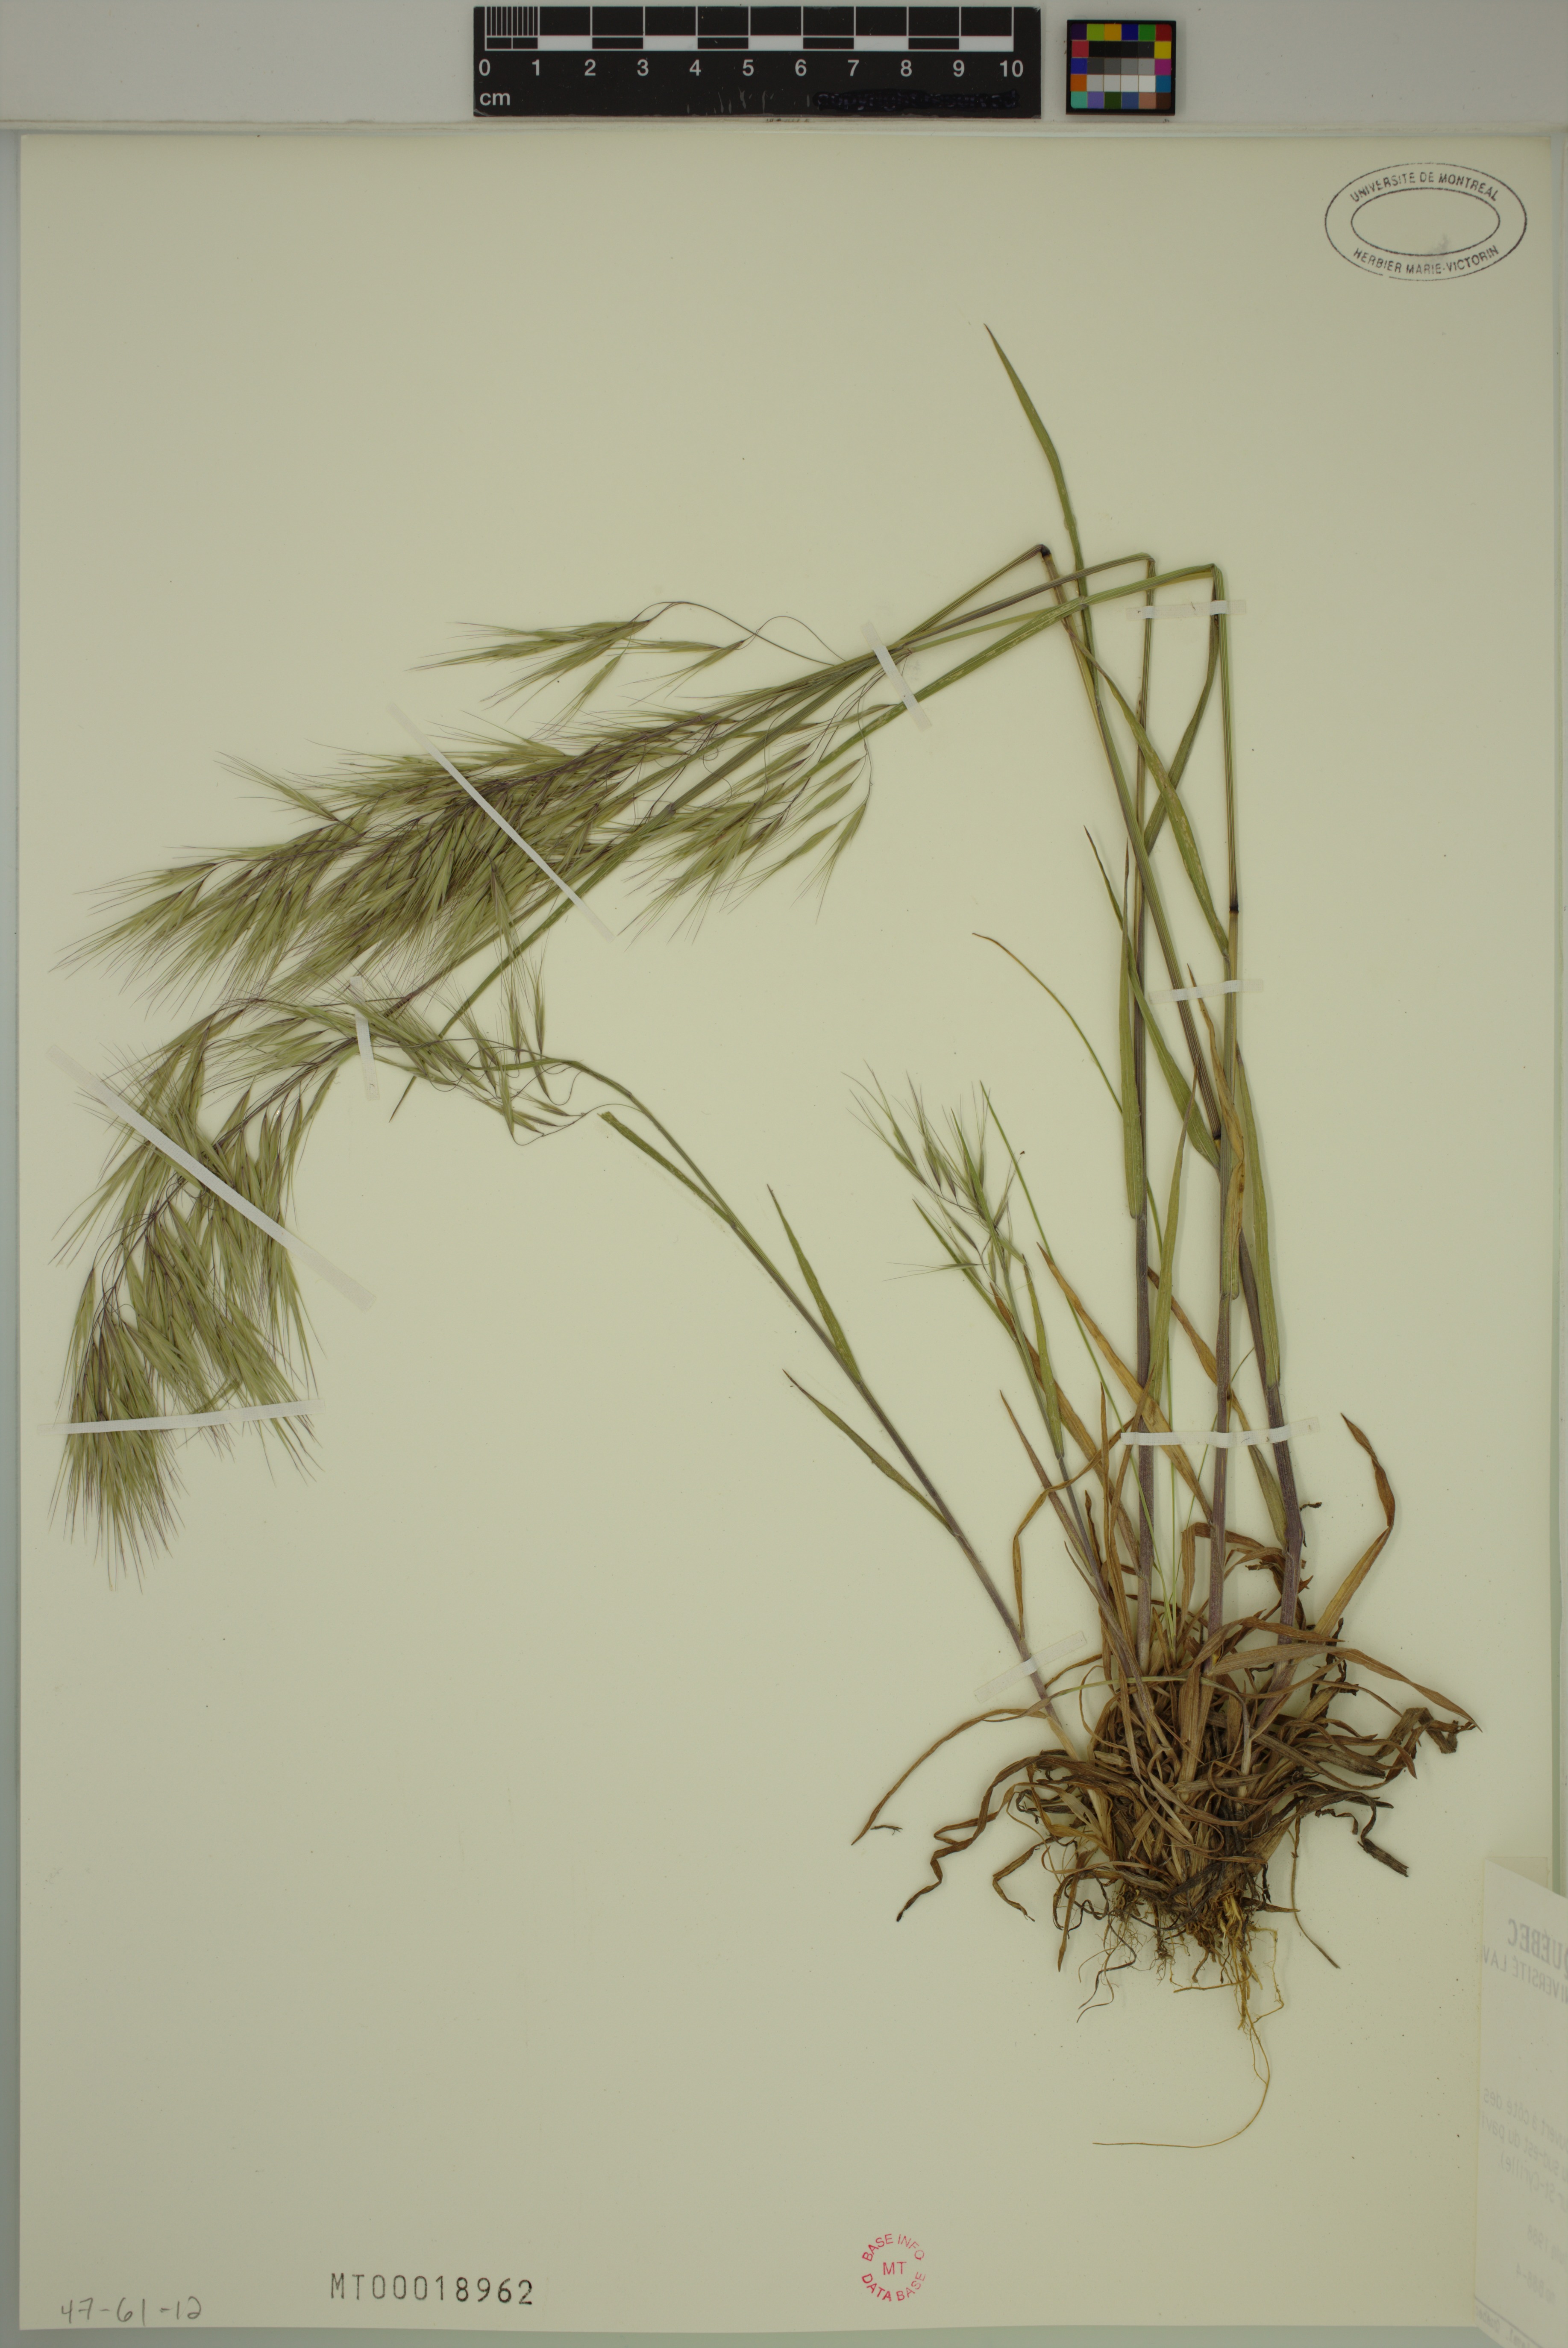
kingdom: Plantae
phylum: Tracheophyta
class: Liliopsida
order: Poales
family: Poaceae
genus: Bromus
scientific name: Bromus tectorum
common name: Cheatgrass
